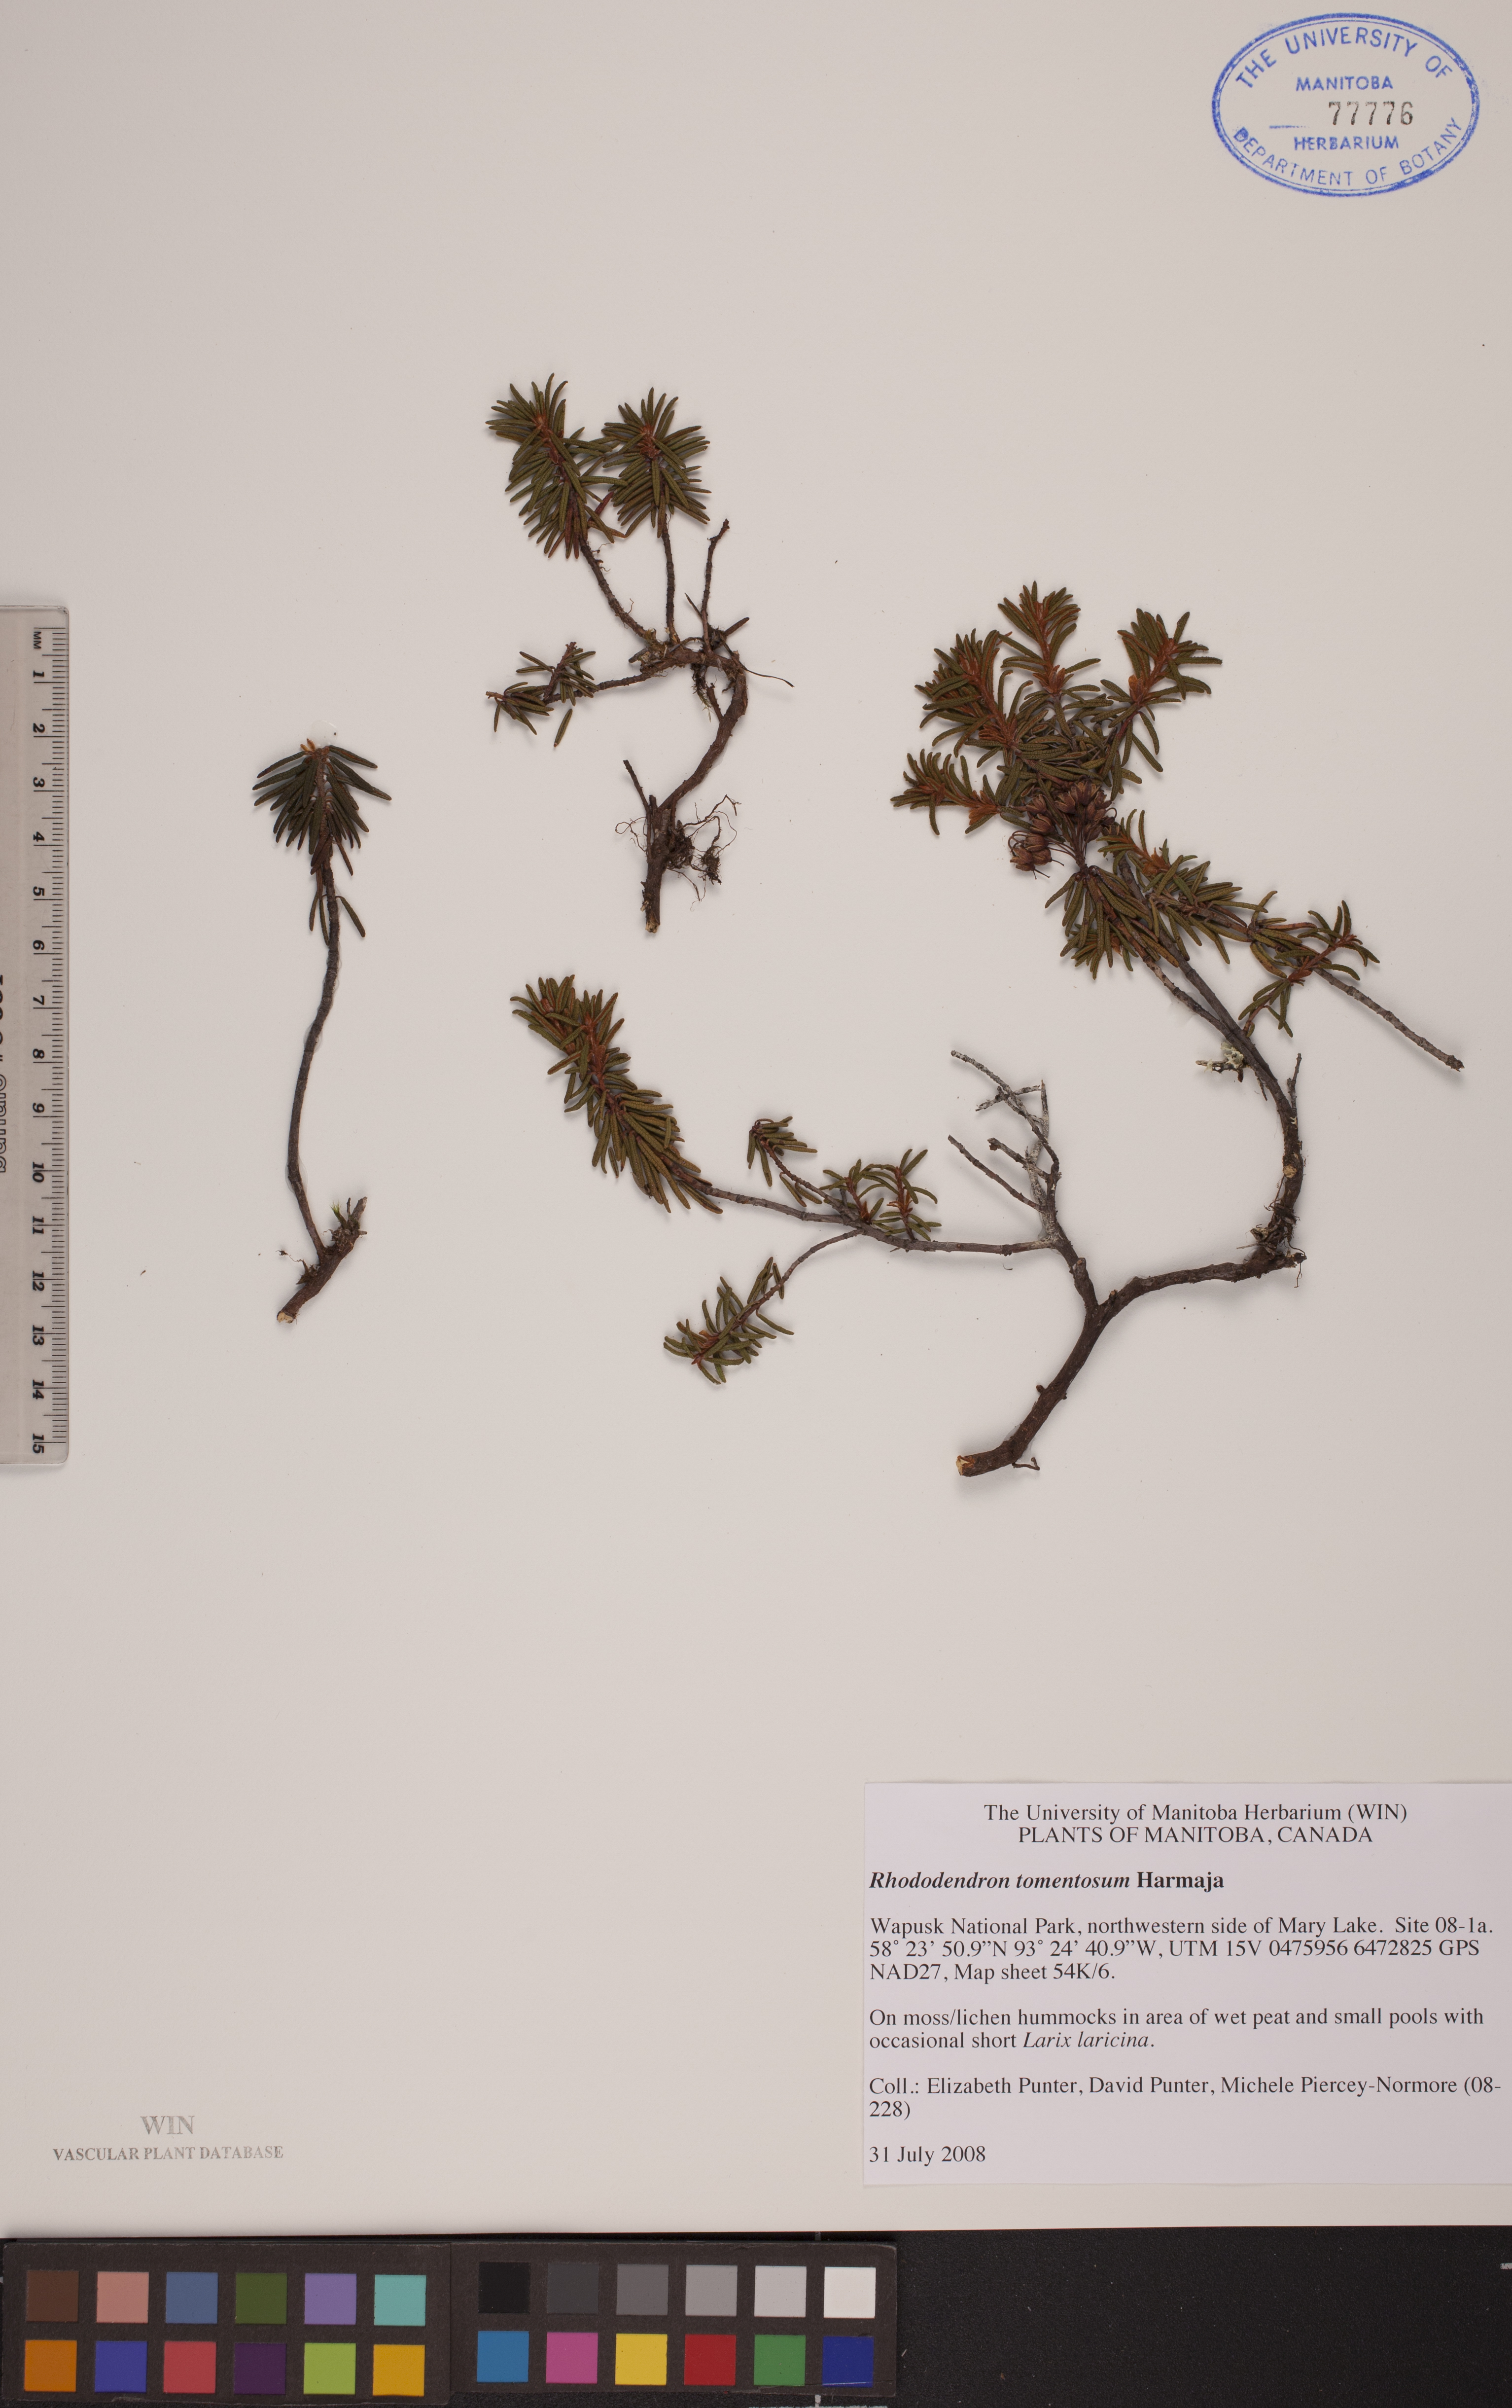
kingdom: Plantae
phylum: Tracheophyta
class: Magnoliopsida
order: Ericales
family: Ericaceae
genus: Rhododendron
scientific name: Rhododendron tomentosum
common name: Marsh labrador tea
